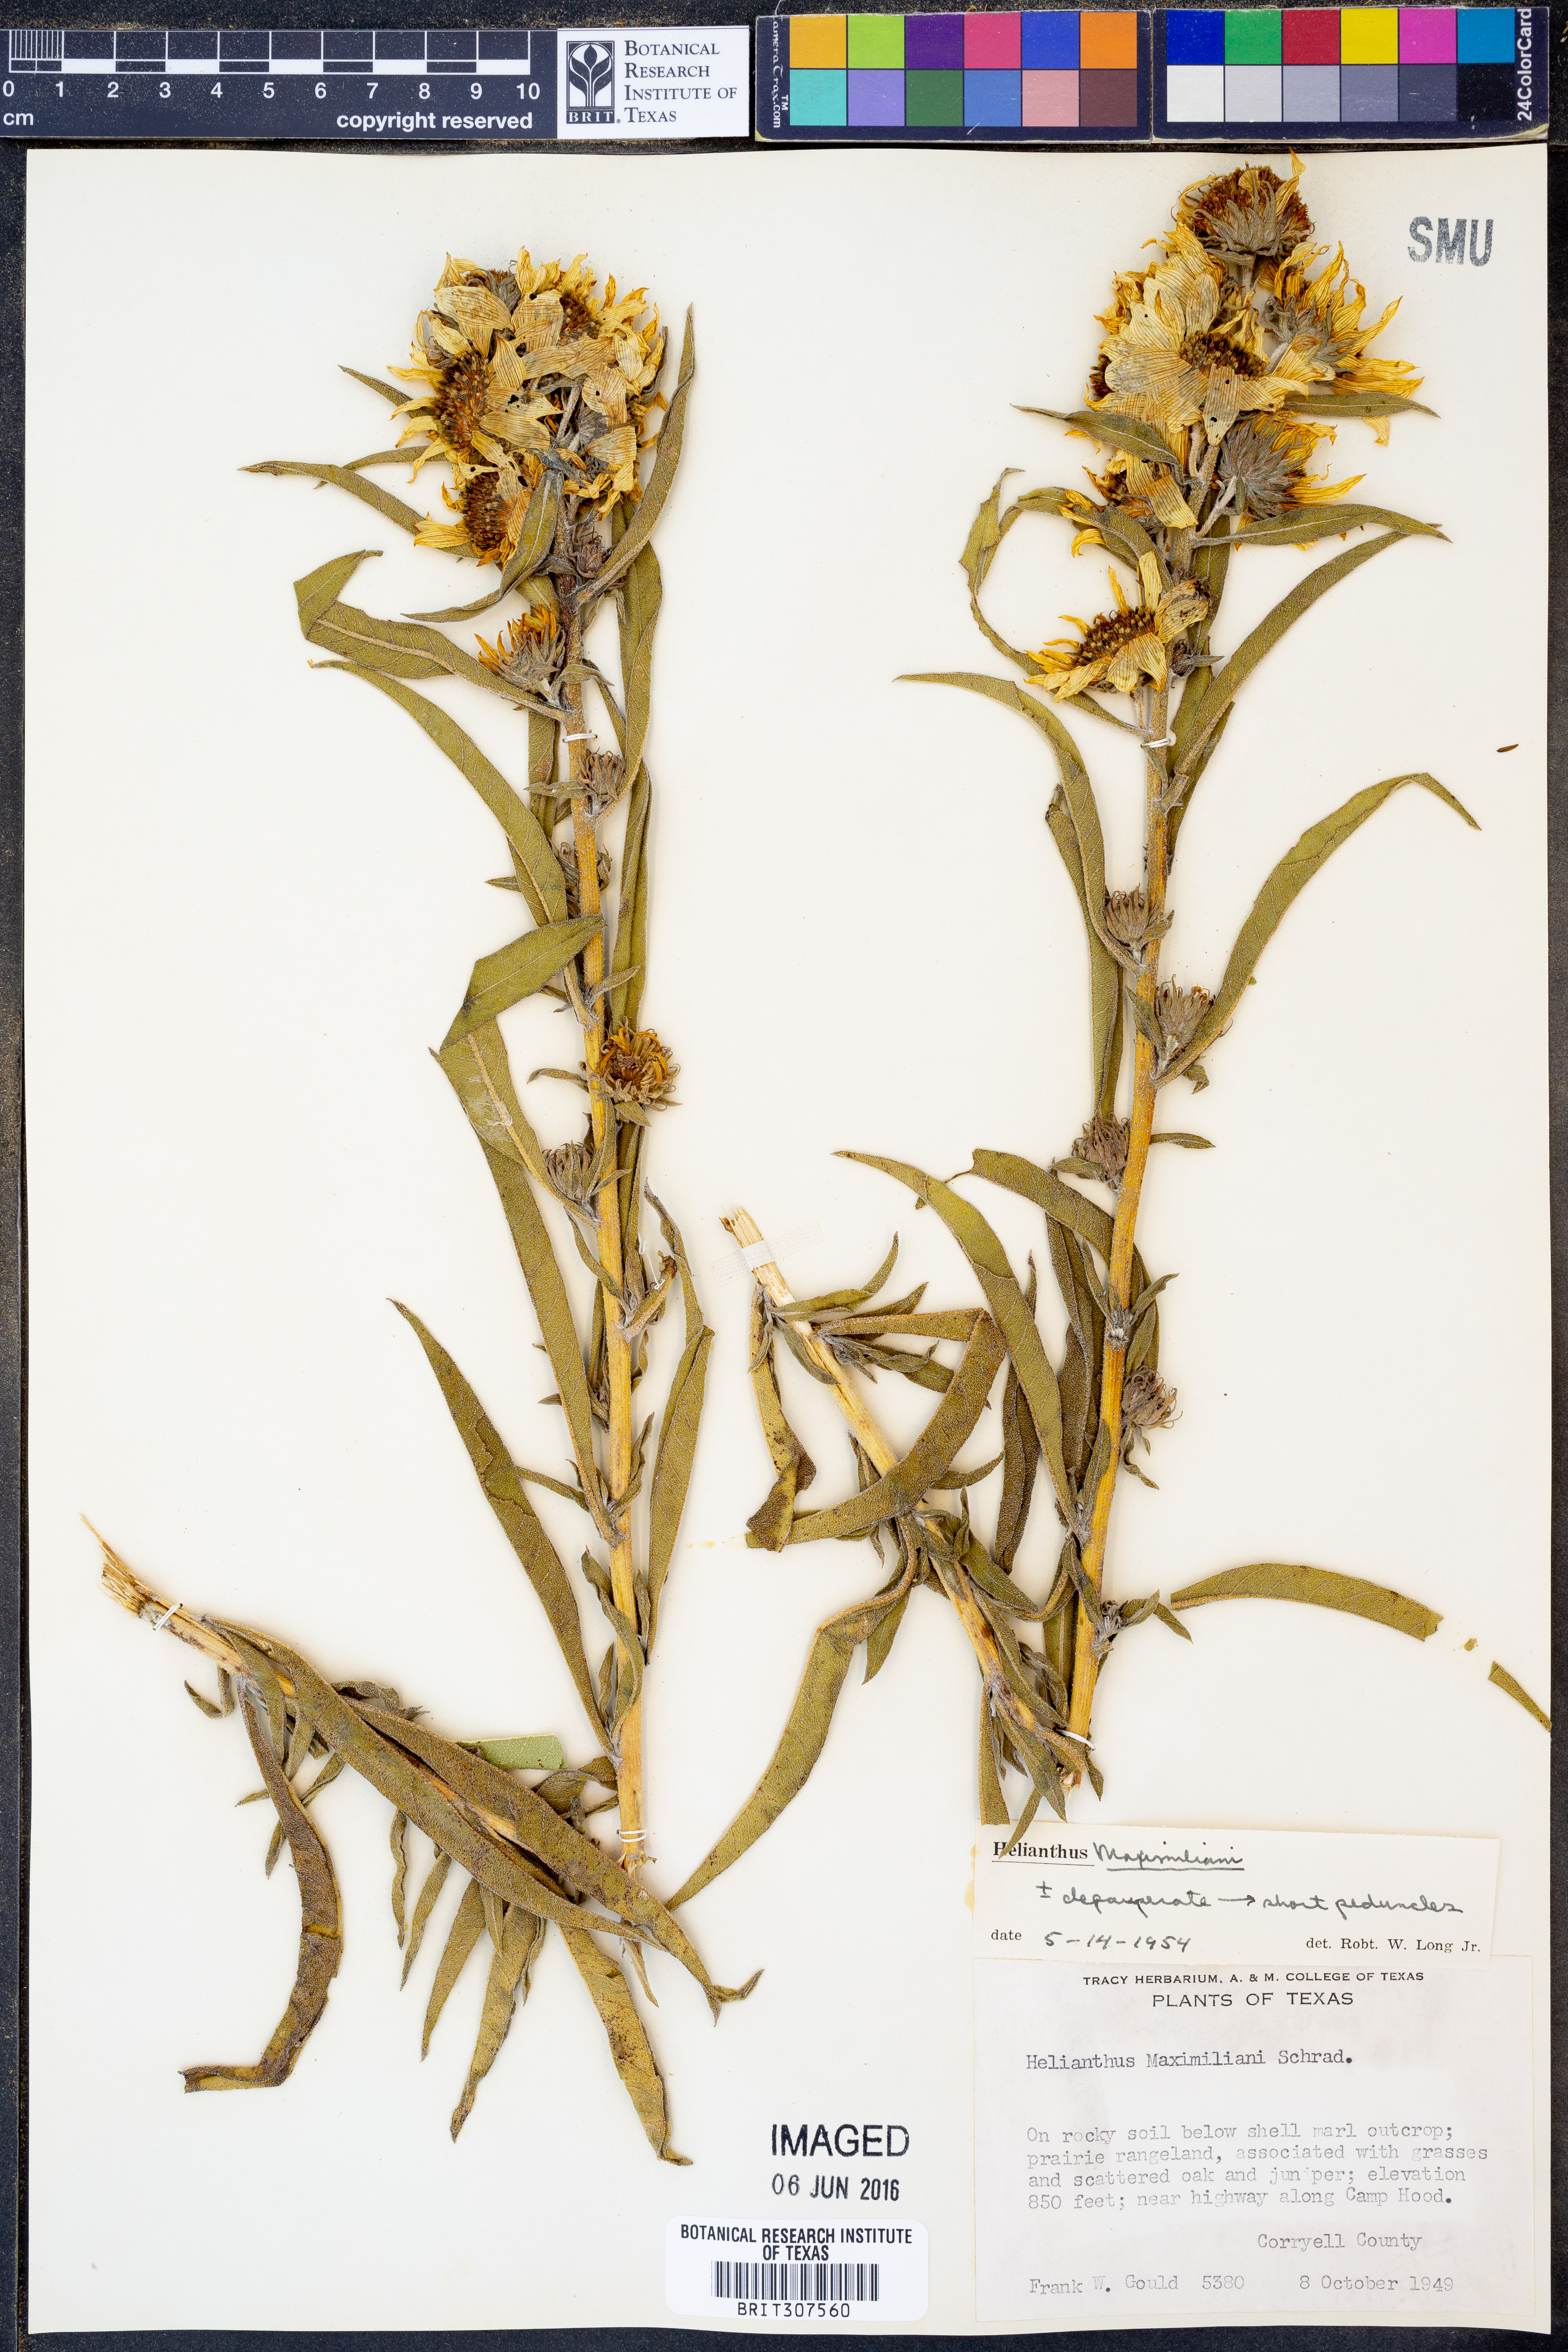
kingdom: Plantae
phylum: Tracheophyta
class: Magnoliopsida
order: Asterales
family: Asteraceae
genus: Helianthus
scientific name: Helianthus maximiliani
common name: Maximilian's sunflower
